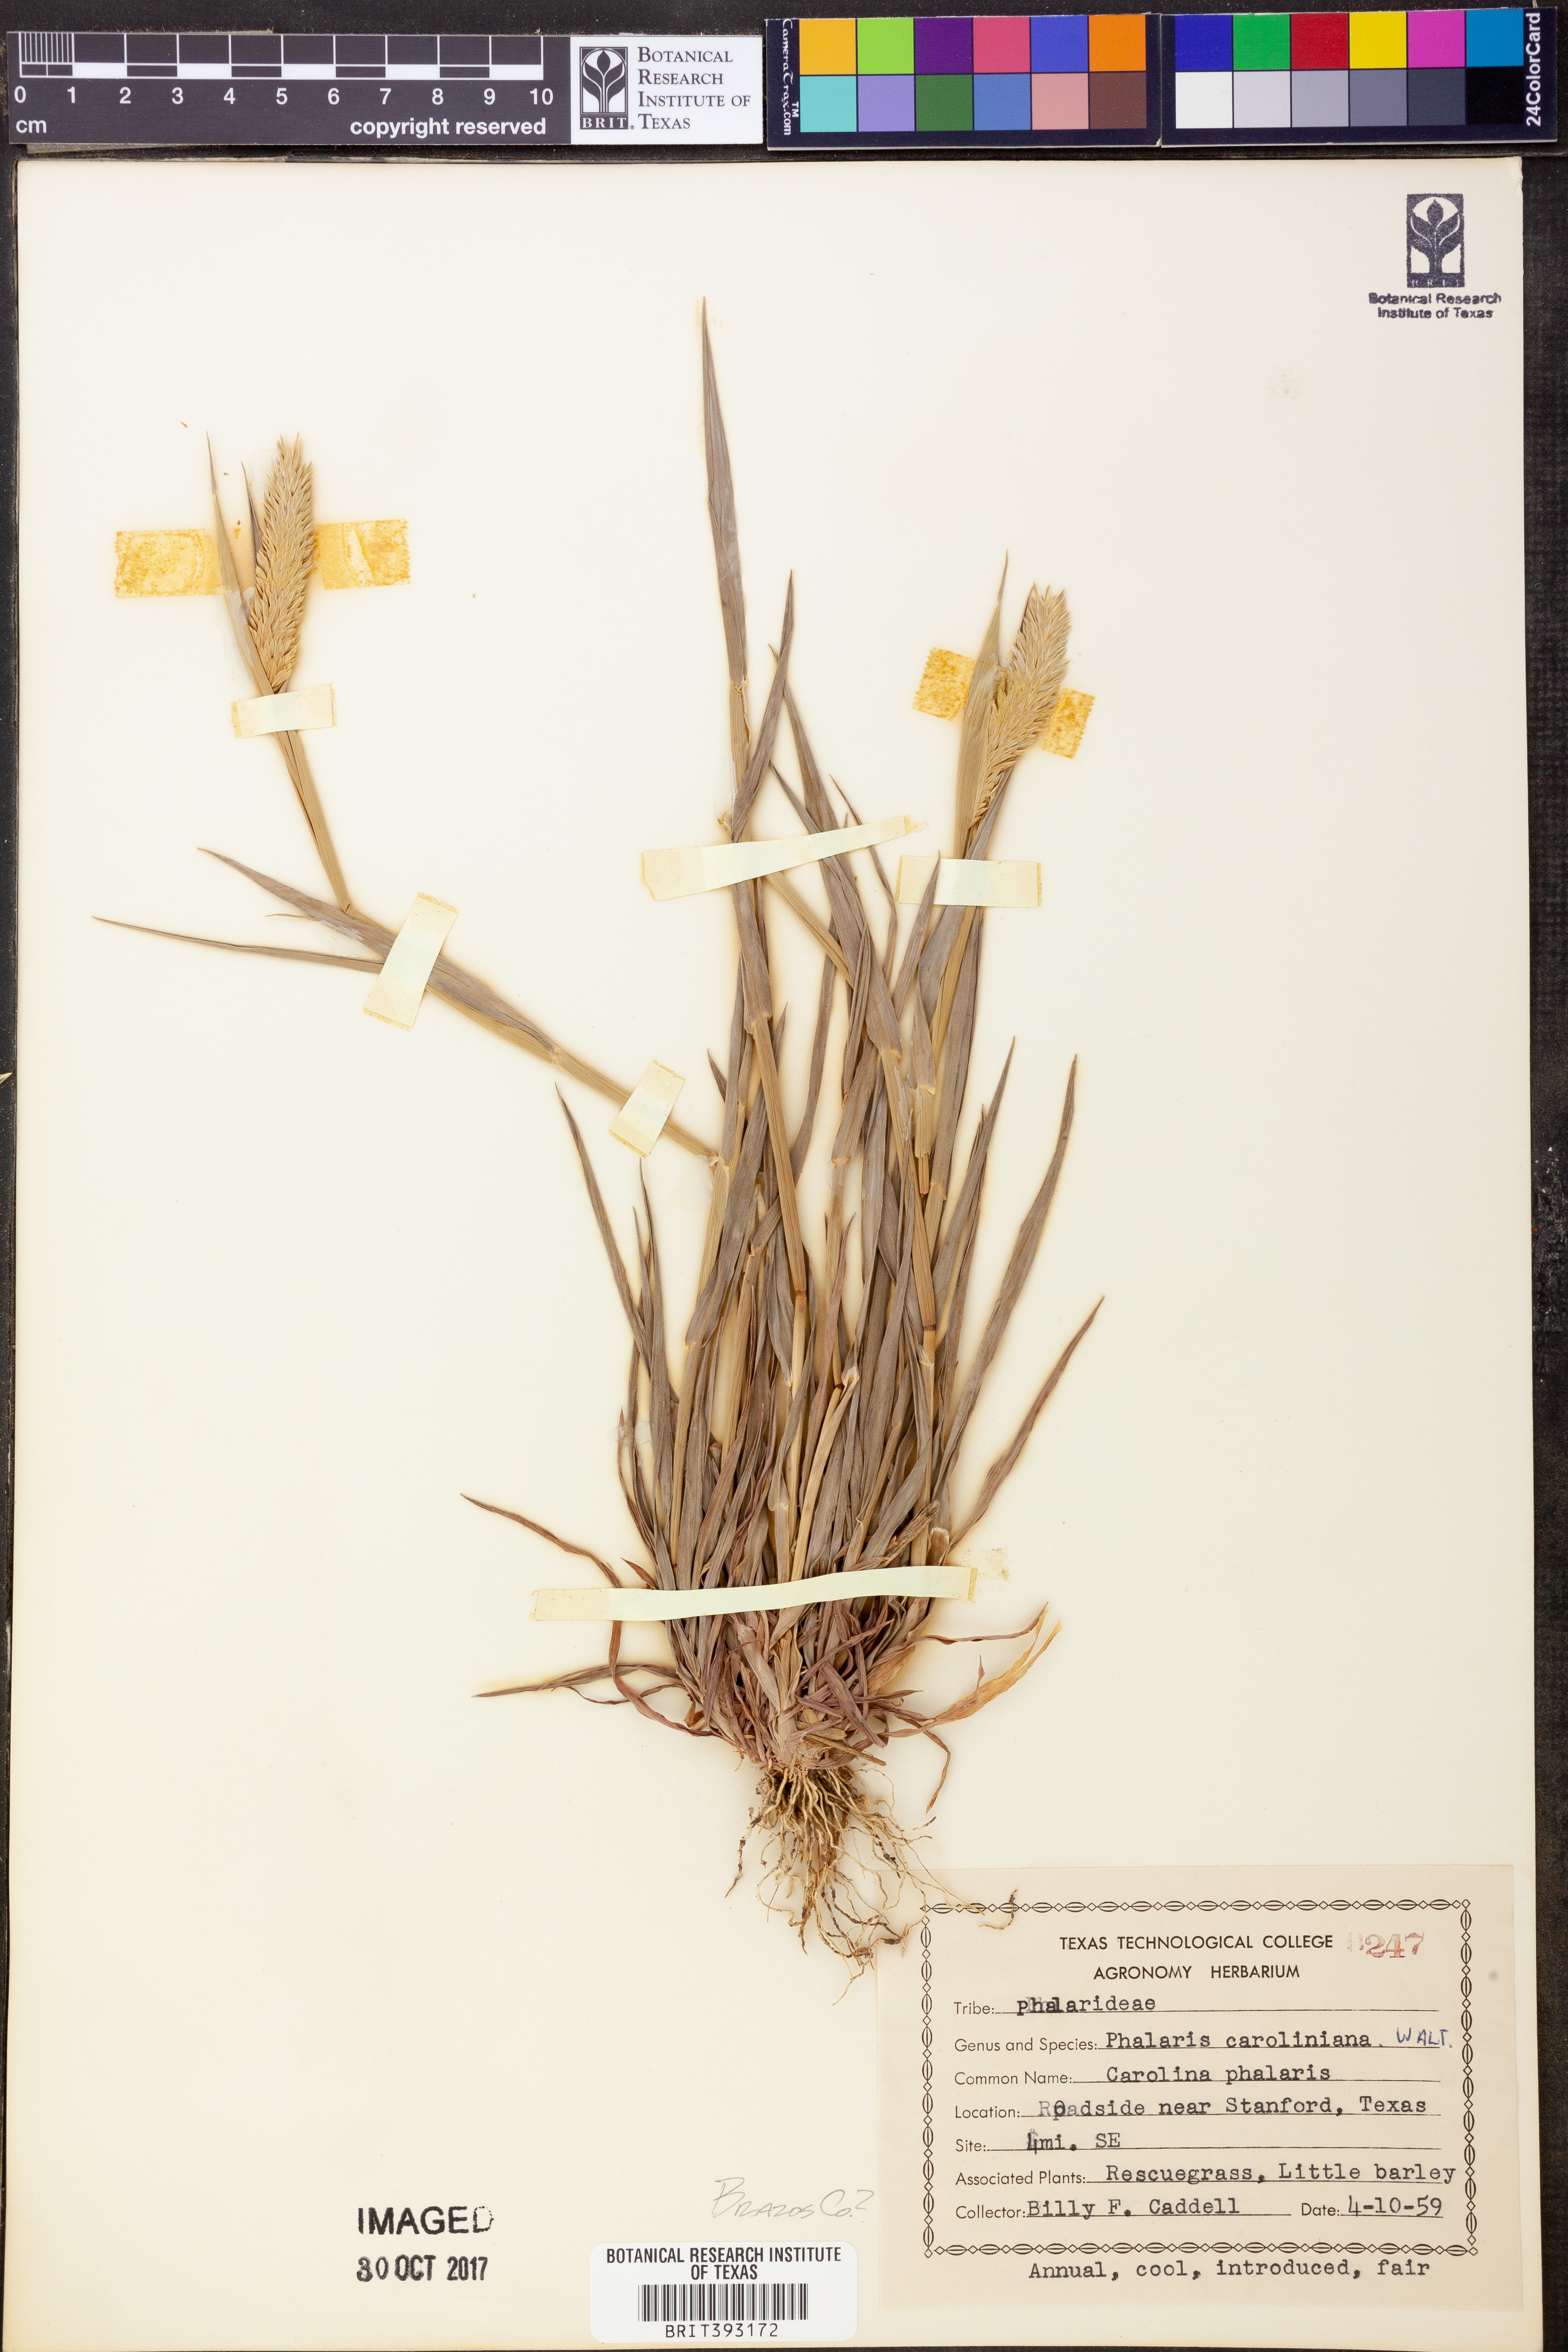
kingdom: Plantae
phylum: Tracheophyta
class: Liliopsida
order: Poales
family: Poaceae
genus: Phalaris
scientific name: Phalaris caroliniana
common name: May grass
